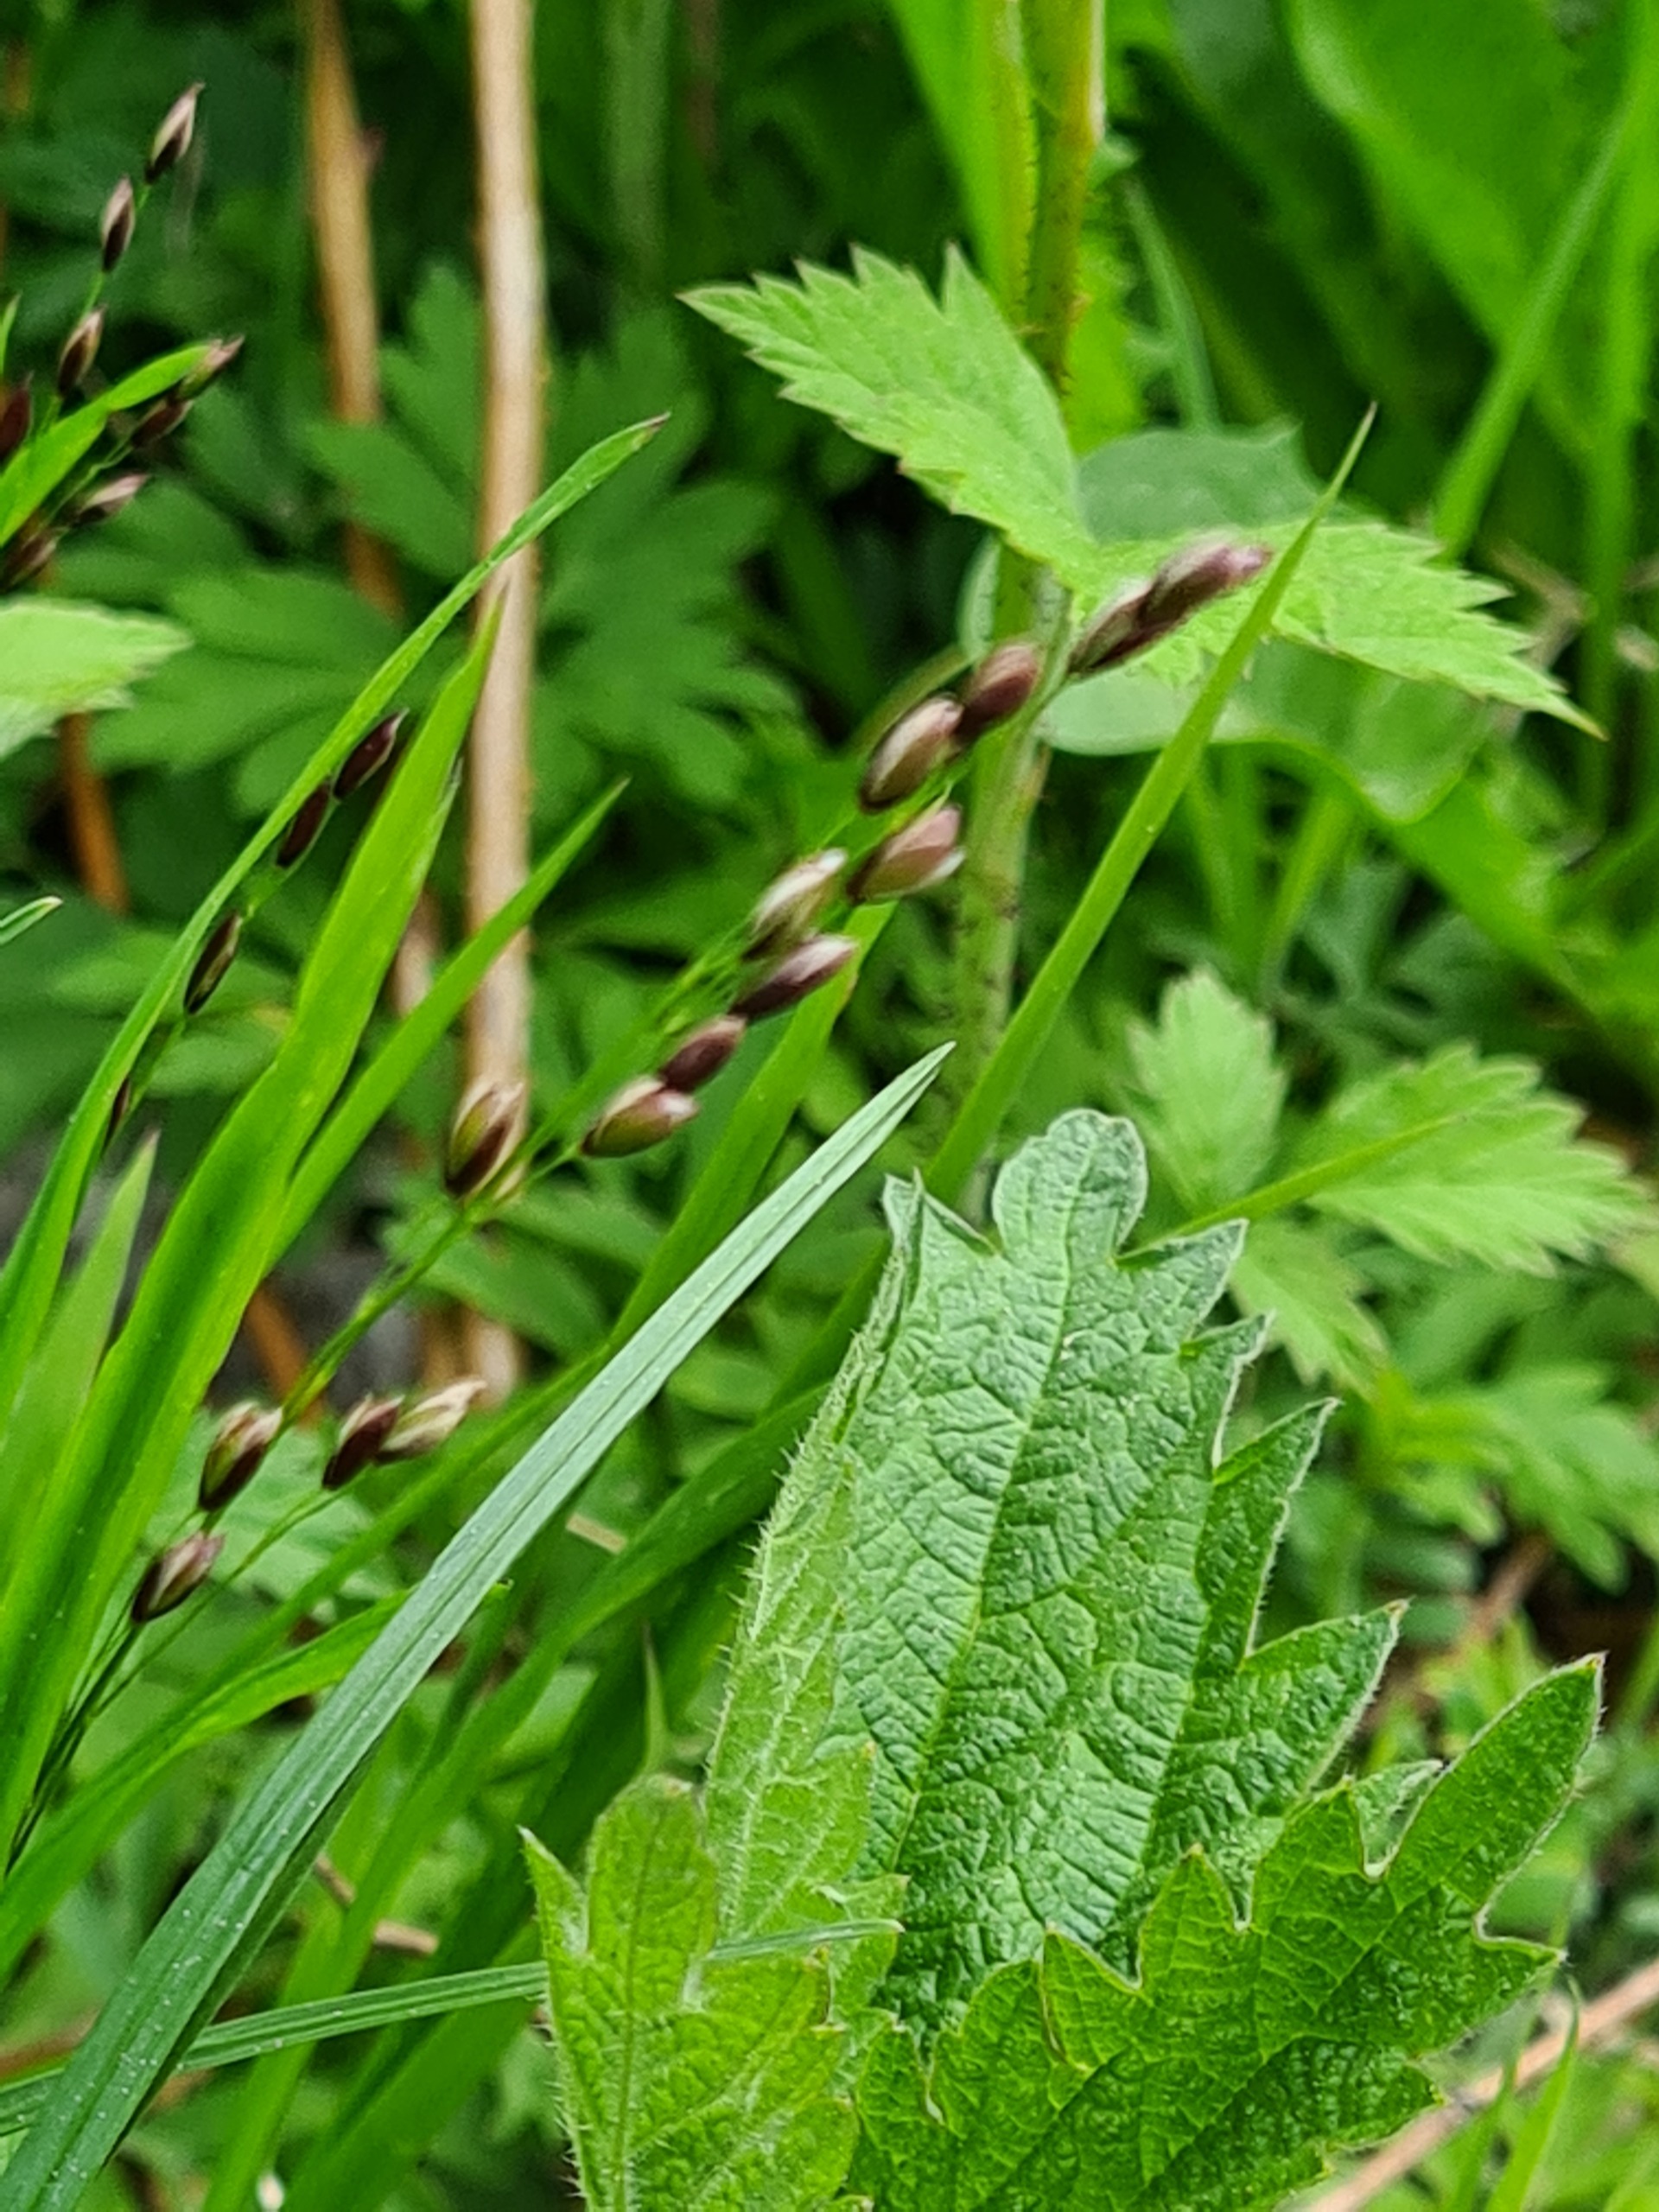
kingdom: Plantae
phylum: Tracheophyta
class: Liliopsida
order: Poales
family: Poaceae
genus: Melica
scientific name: Melica uniflora
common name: Enblomstret flitteraks
